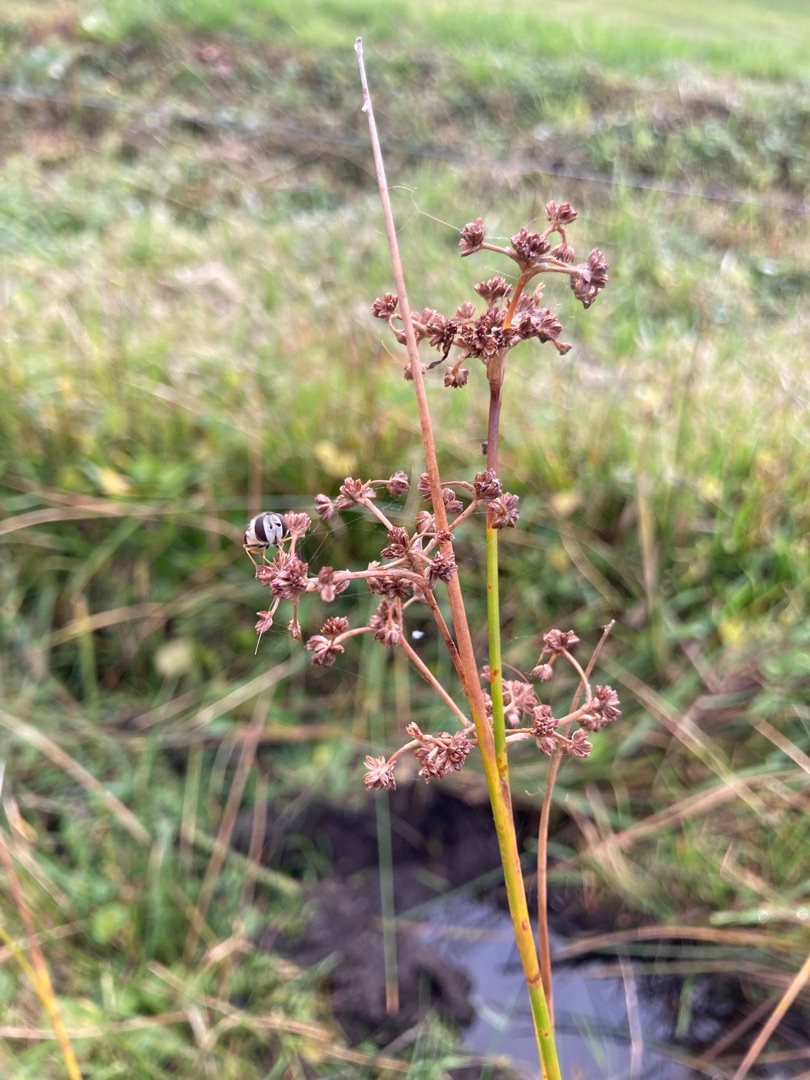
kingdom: Plantae
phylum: Tracheophyta
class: Liliopsida
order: Poales
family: Juncaceae
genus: Juncus
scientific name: Juncus subnodulosus
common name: Butblomstret siv
